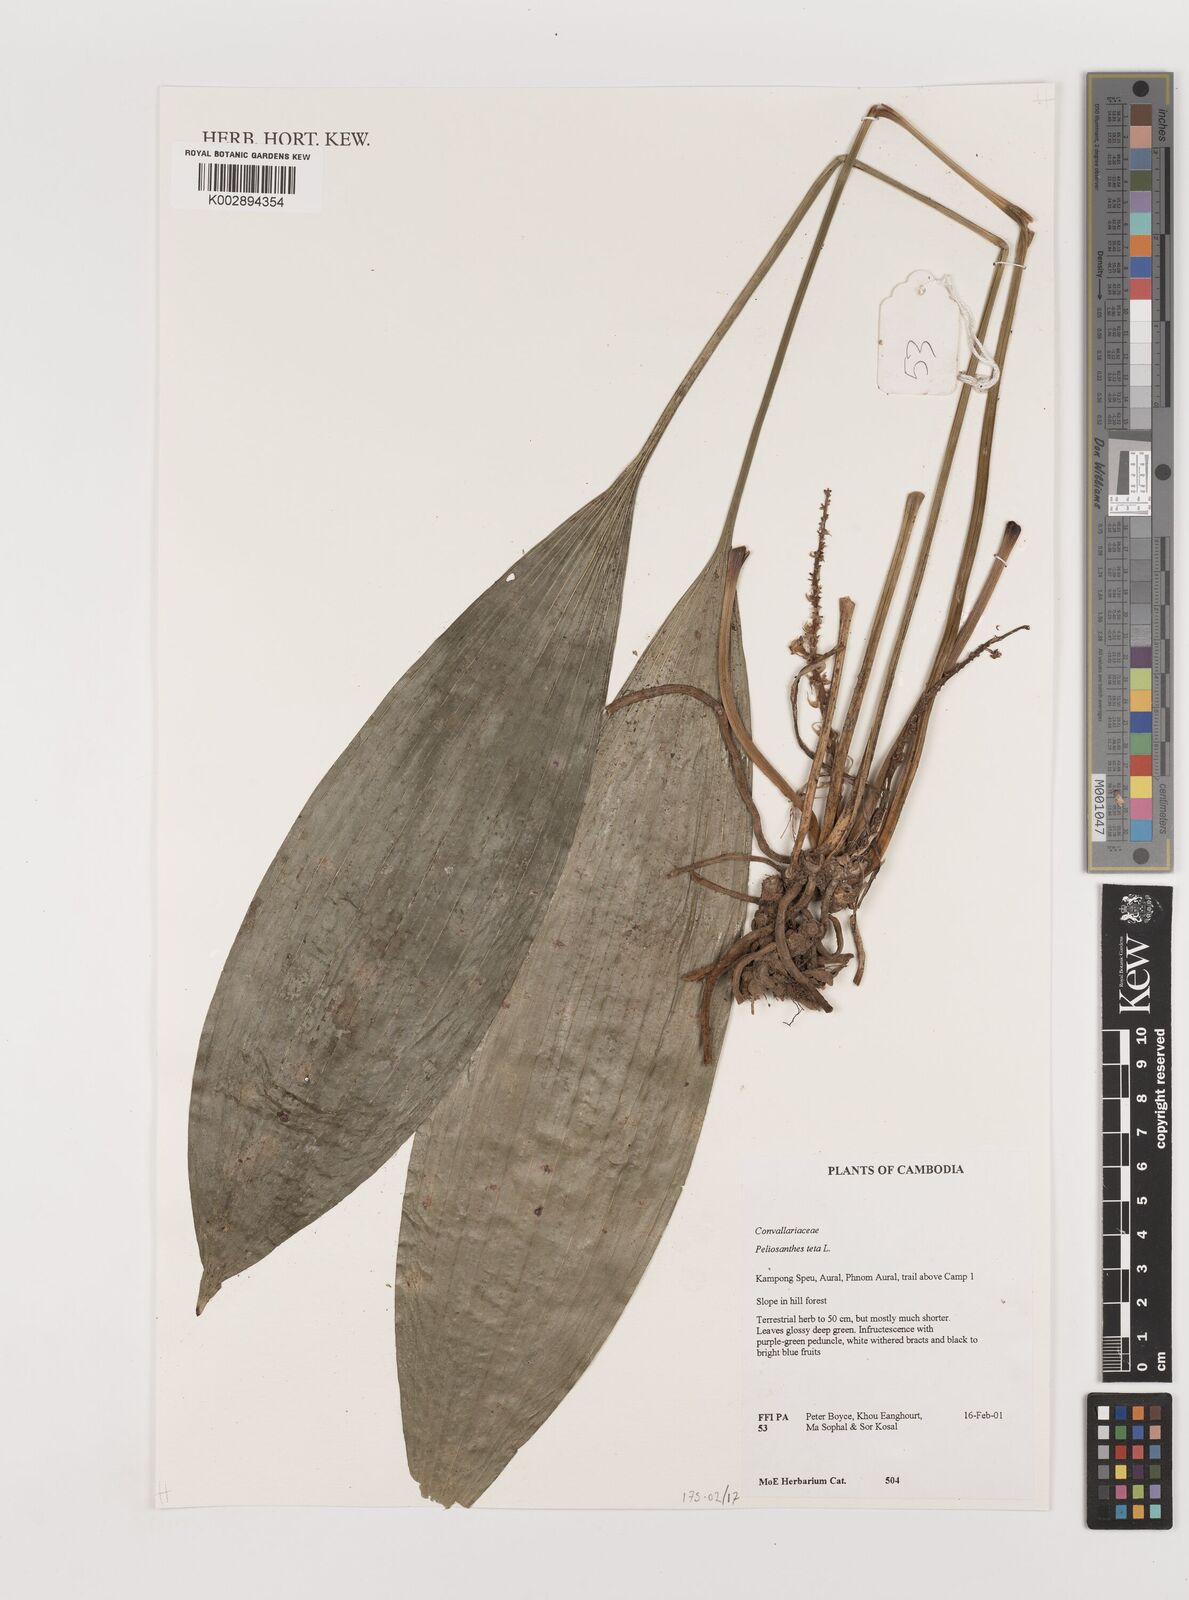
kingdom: Plantae
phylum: Tracheophyta
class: Liliopsida
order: Asparagales
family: Asparagaceae
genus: Peliosanthes
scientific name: Peliosanthes teta
